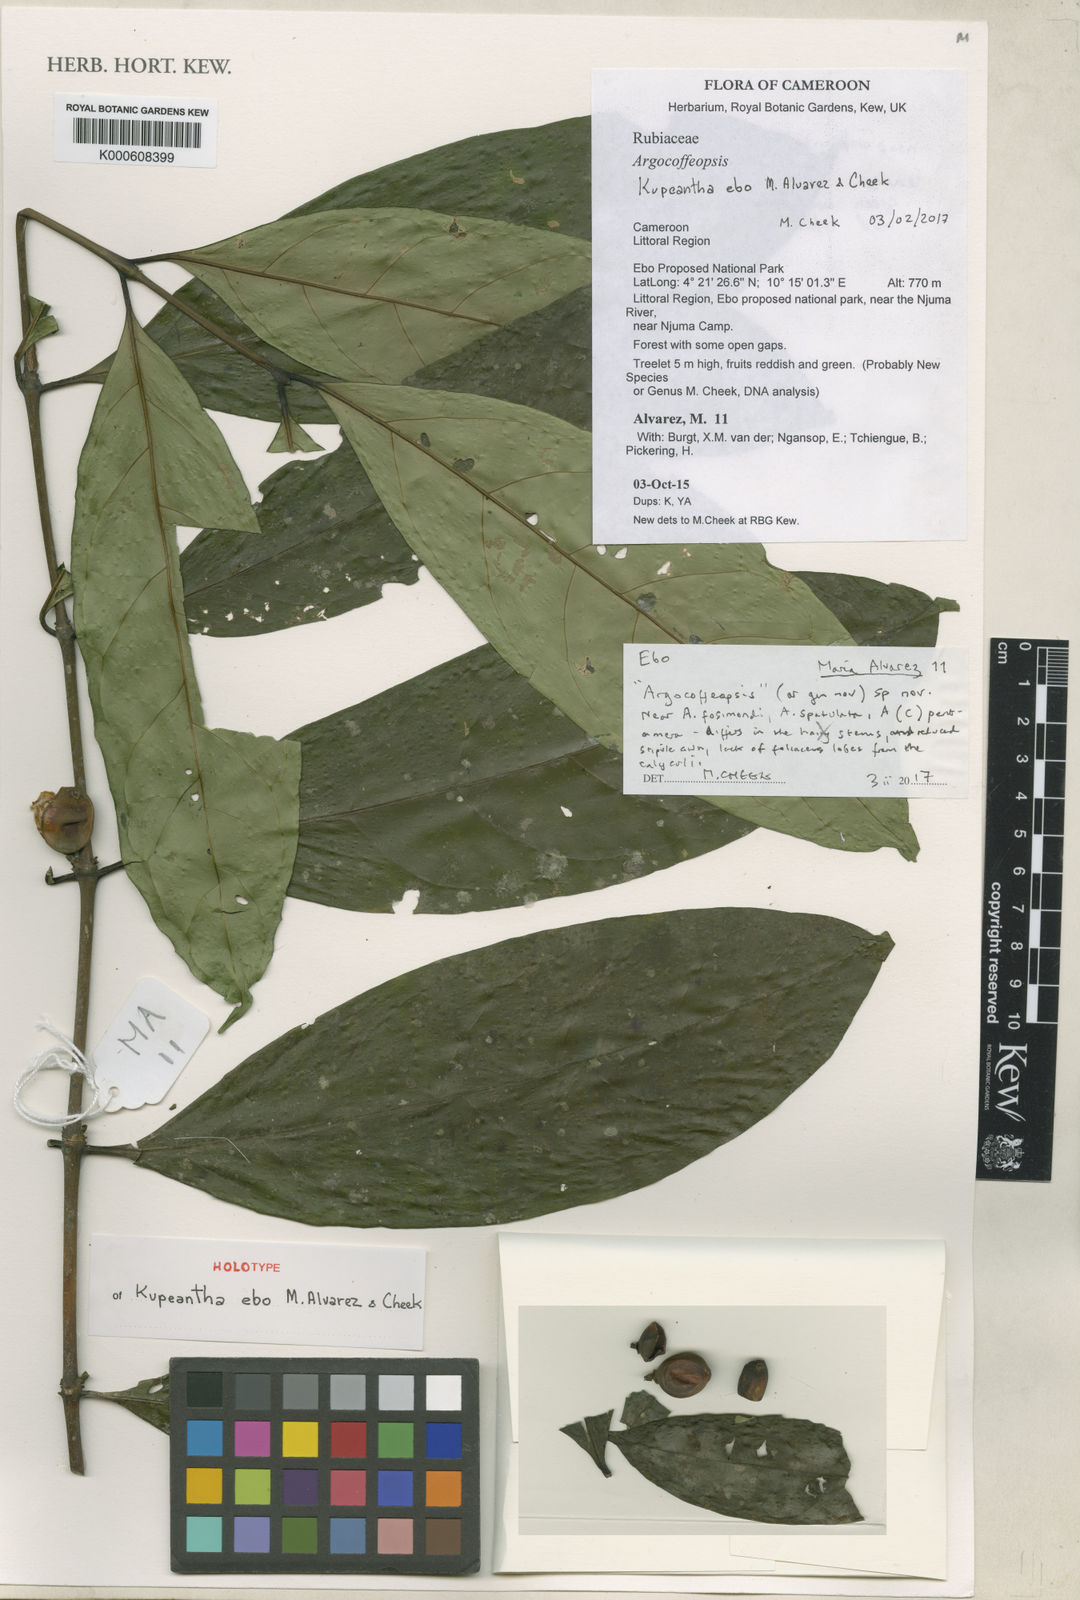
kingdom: Plantae
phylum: Tracheophyta
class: Magnoliopsida
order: Gentianales
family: Rubiaceae
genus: Kupeantha
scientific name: Kupeantha
